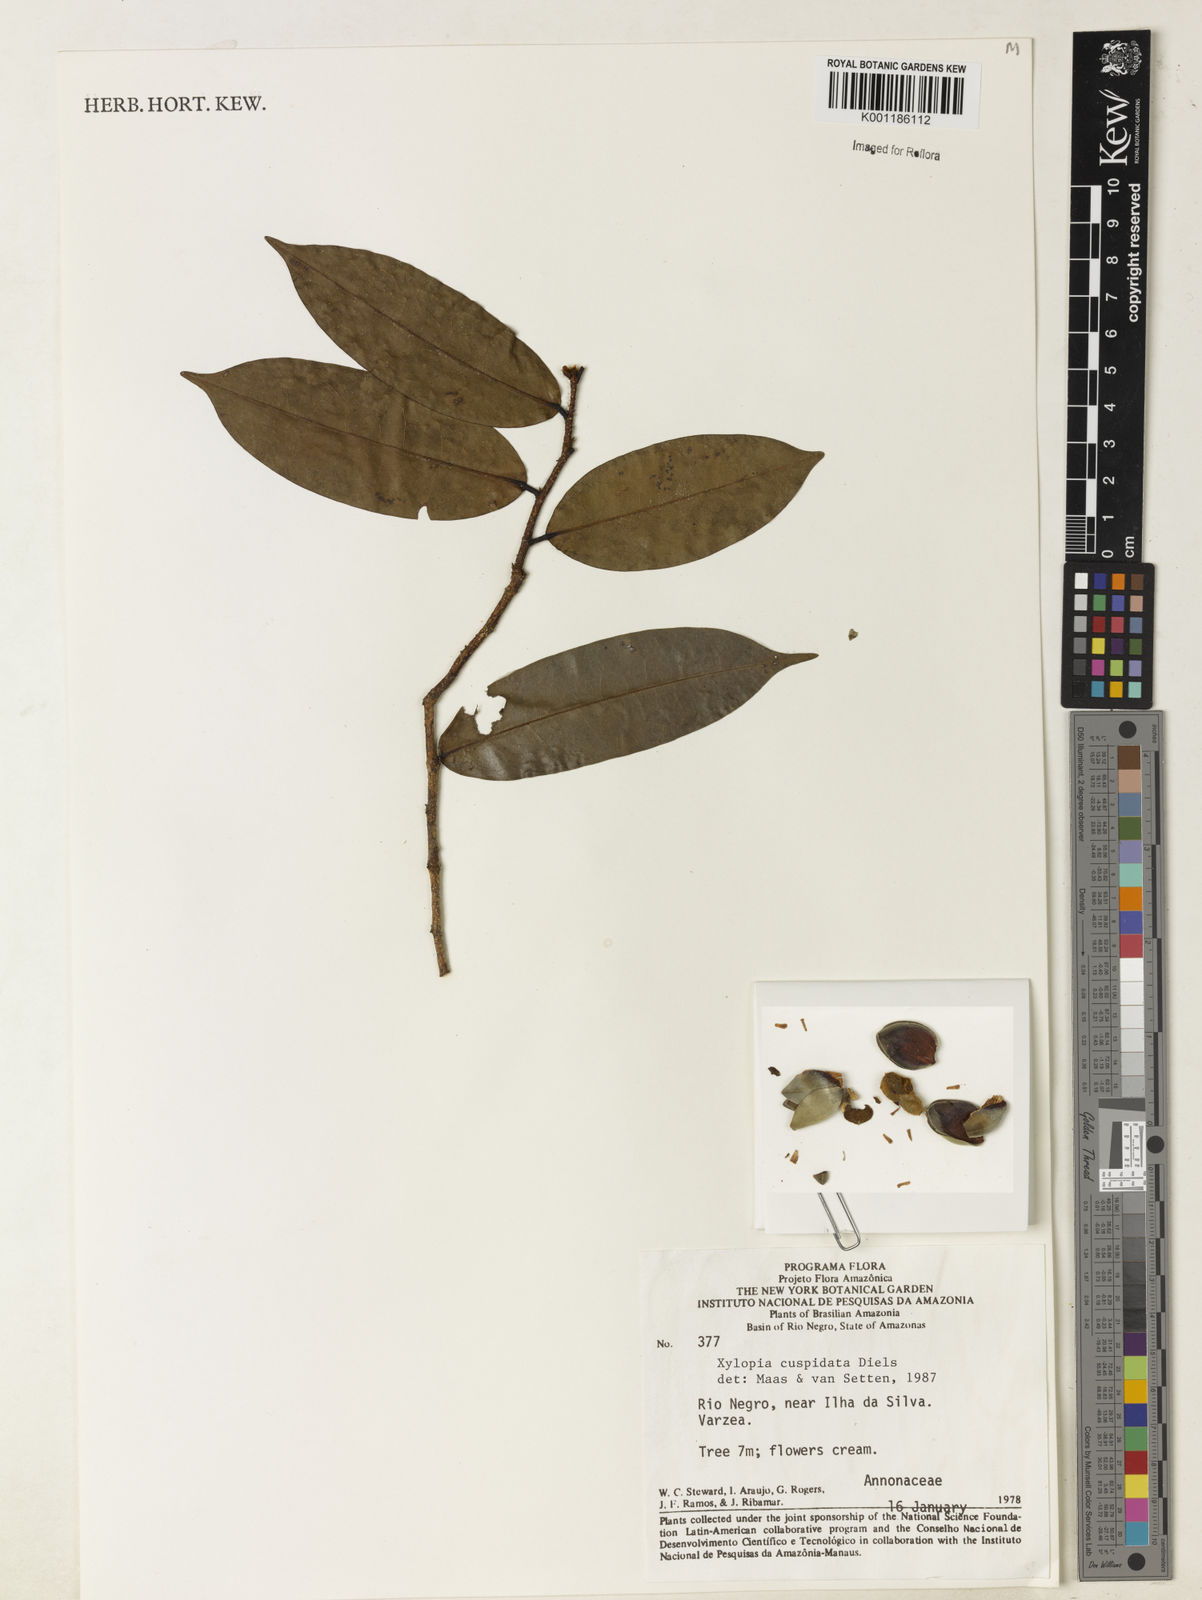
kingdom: Plantae
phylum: Tracheophyta
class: Magnoliopsida
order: Magnoliales
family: Annonaceae
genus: Xylopia
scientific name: Xylopia cuspidata
